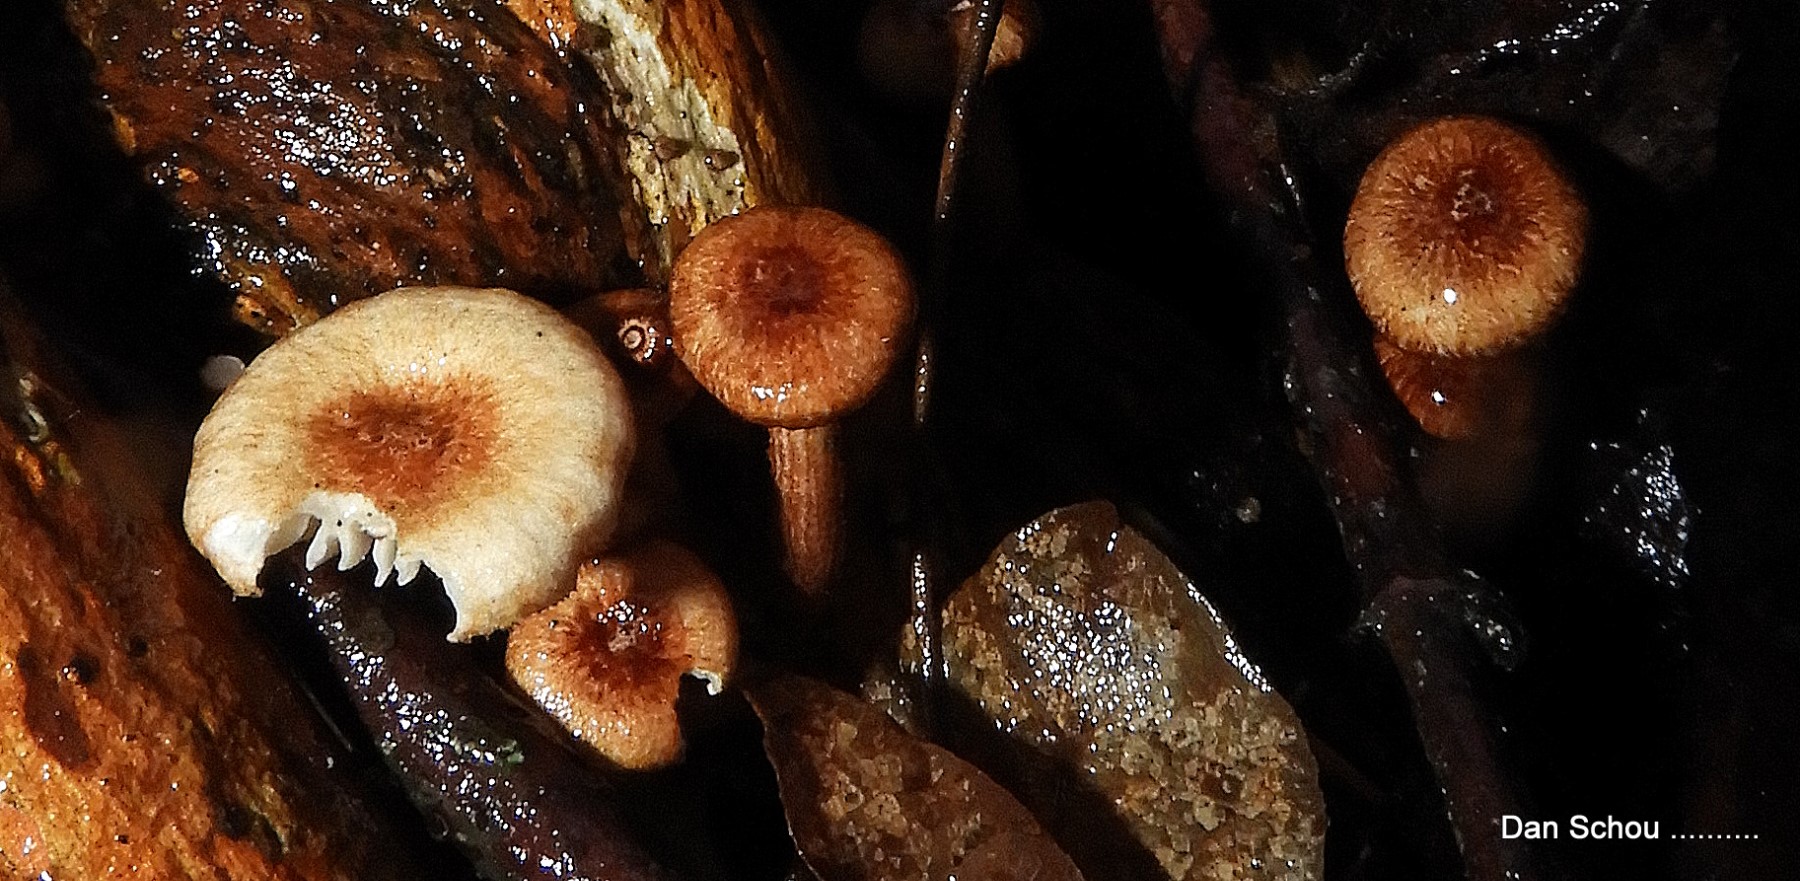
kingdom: Fungi
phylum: Basidiomycota
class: Agaricomycetes
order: Agaricales
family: Marasmiaceae
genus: Crinipellis
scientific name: Crinipellis scabella
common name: børstefod
